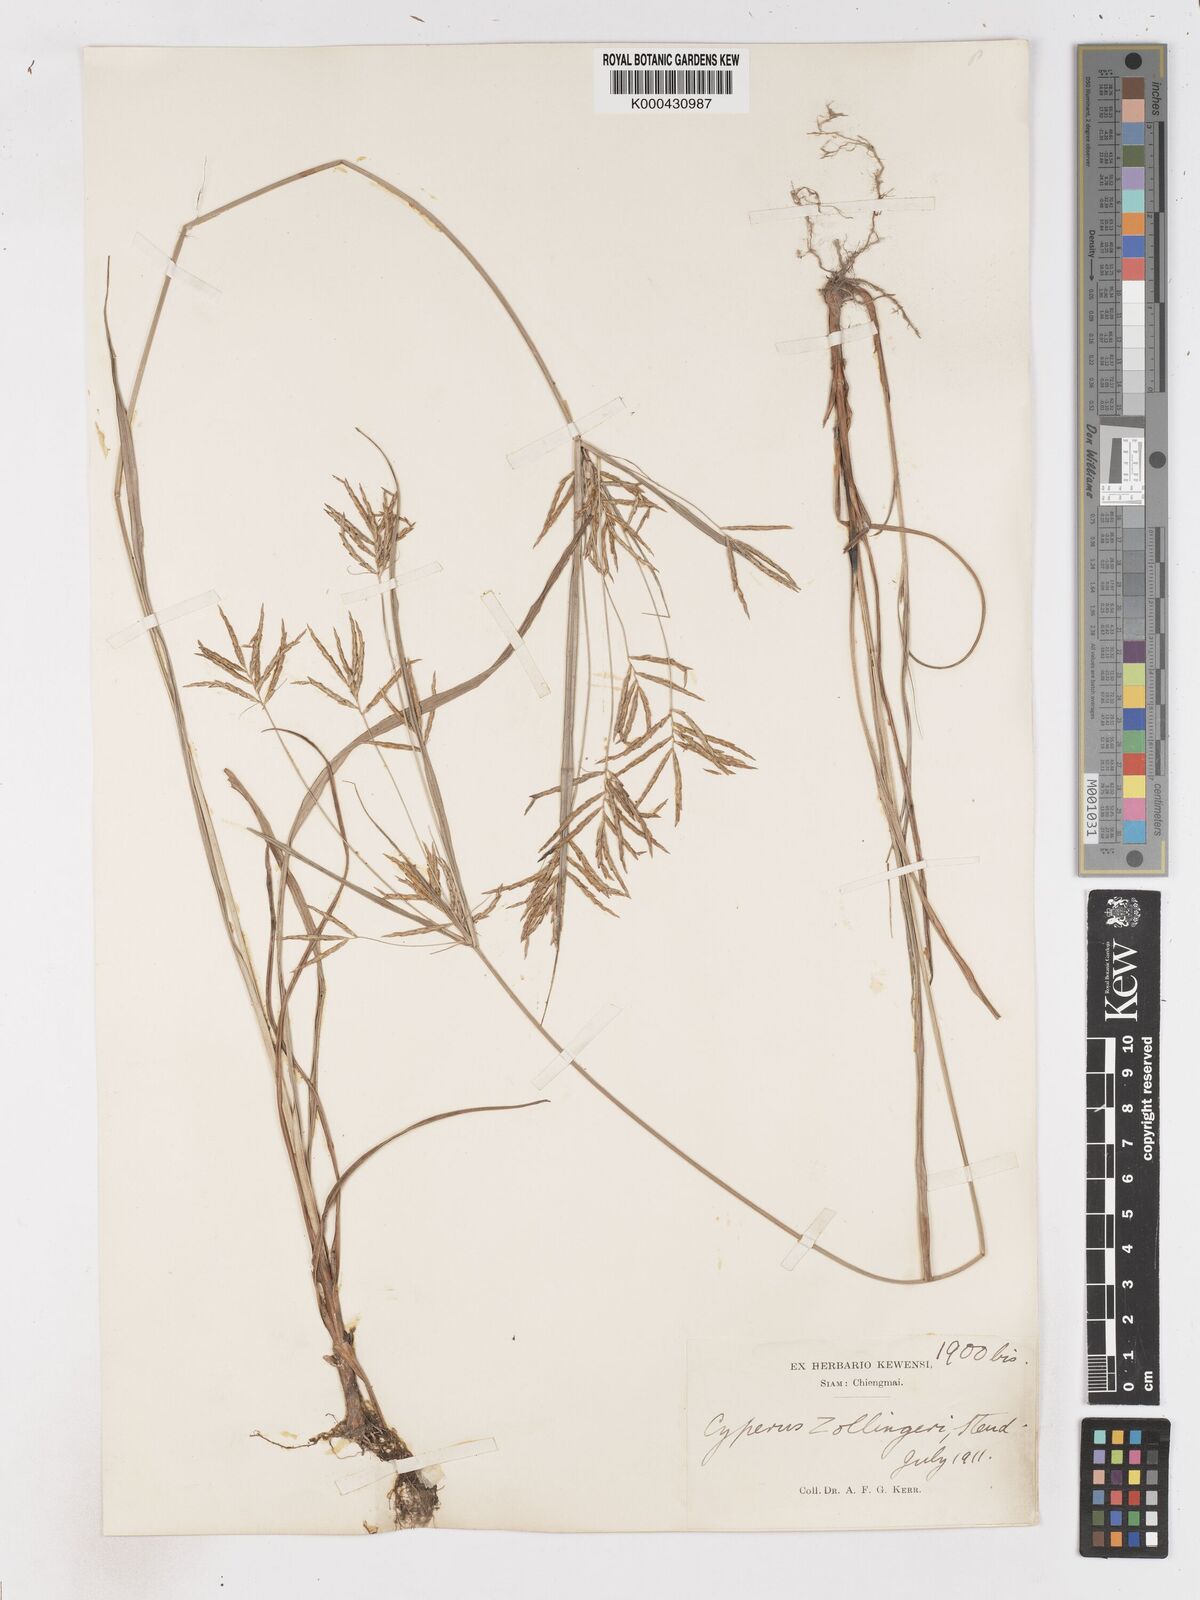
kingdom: Plantae
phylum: Tracheophyta
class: Liliopsida
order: Poales
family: Cyperaceae
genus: Cyperus
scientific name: Cyperus tenuiculmis
